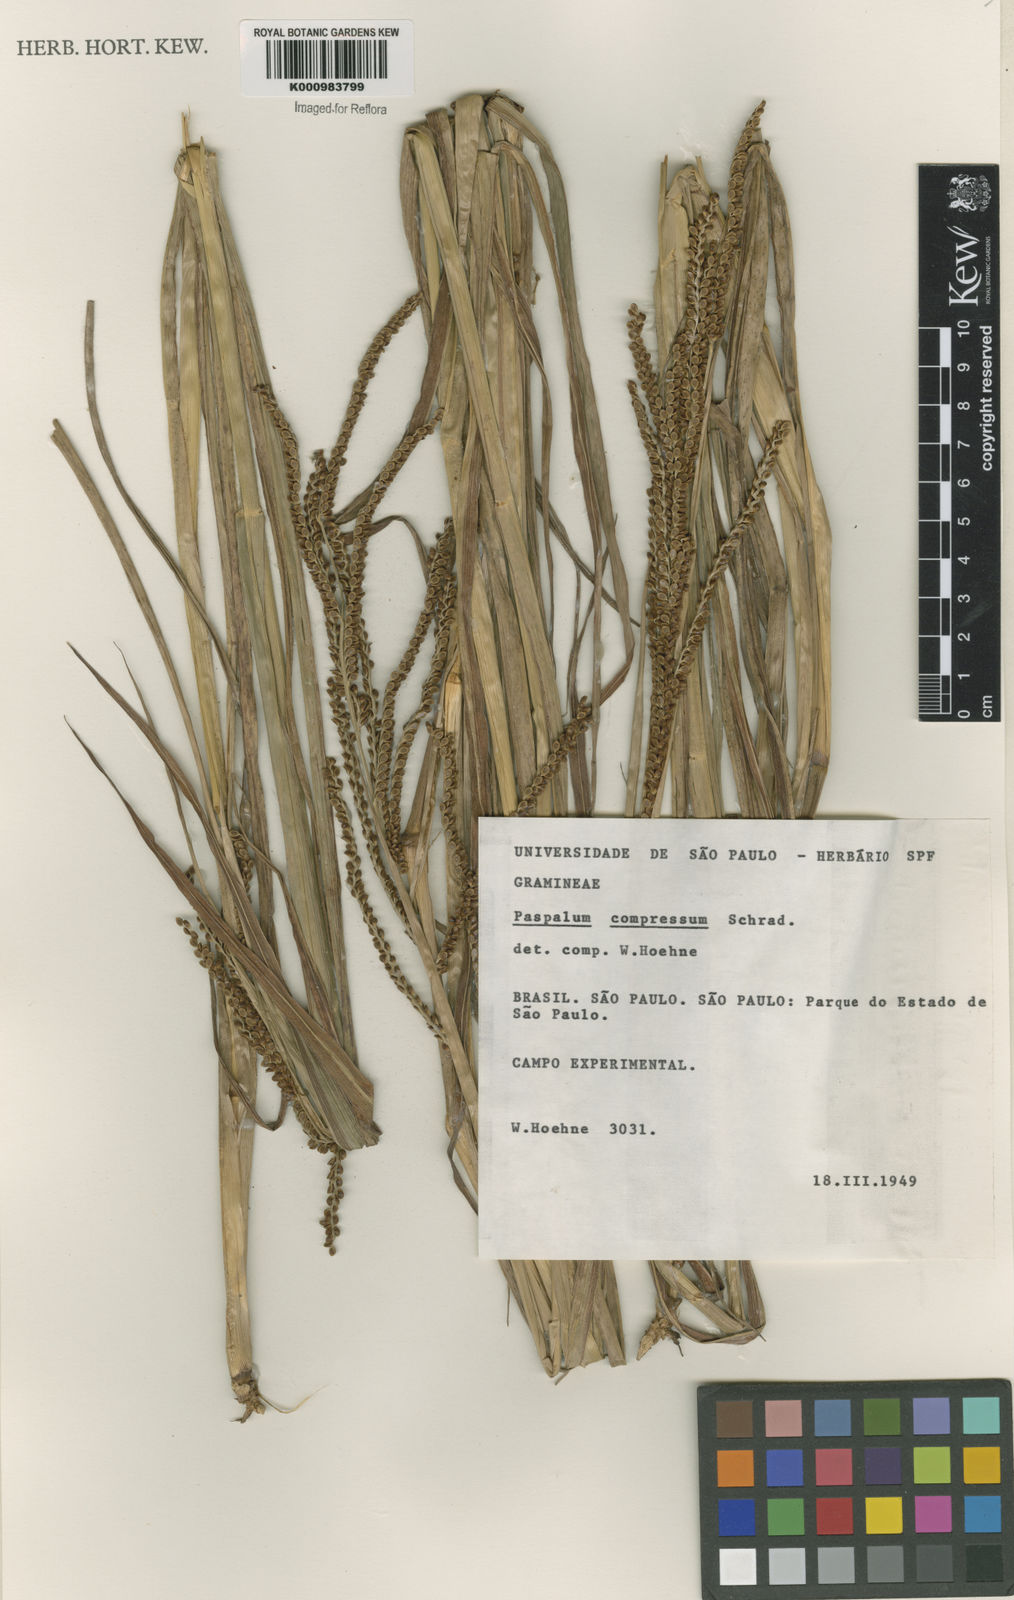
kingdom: Plantae
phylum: Tracheophyta
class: Liliopsida
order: Poales
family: Poaceae
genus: Paspalum
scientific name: Paspalum plicatulum
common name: Top paspalum
